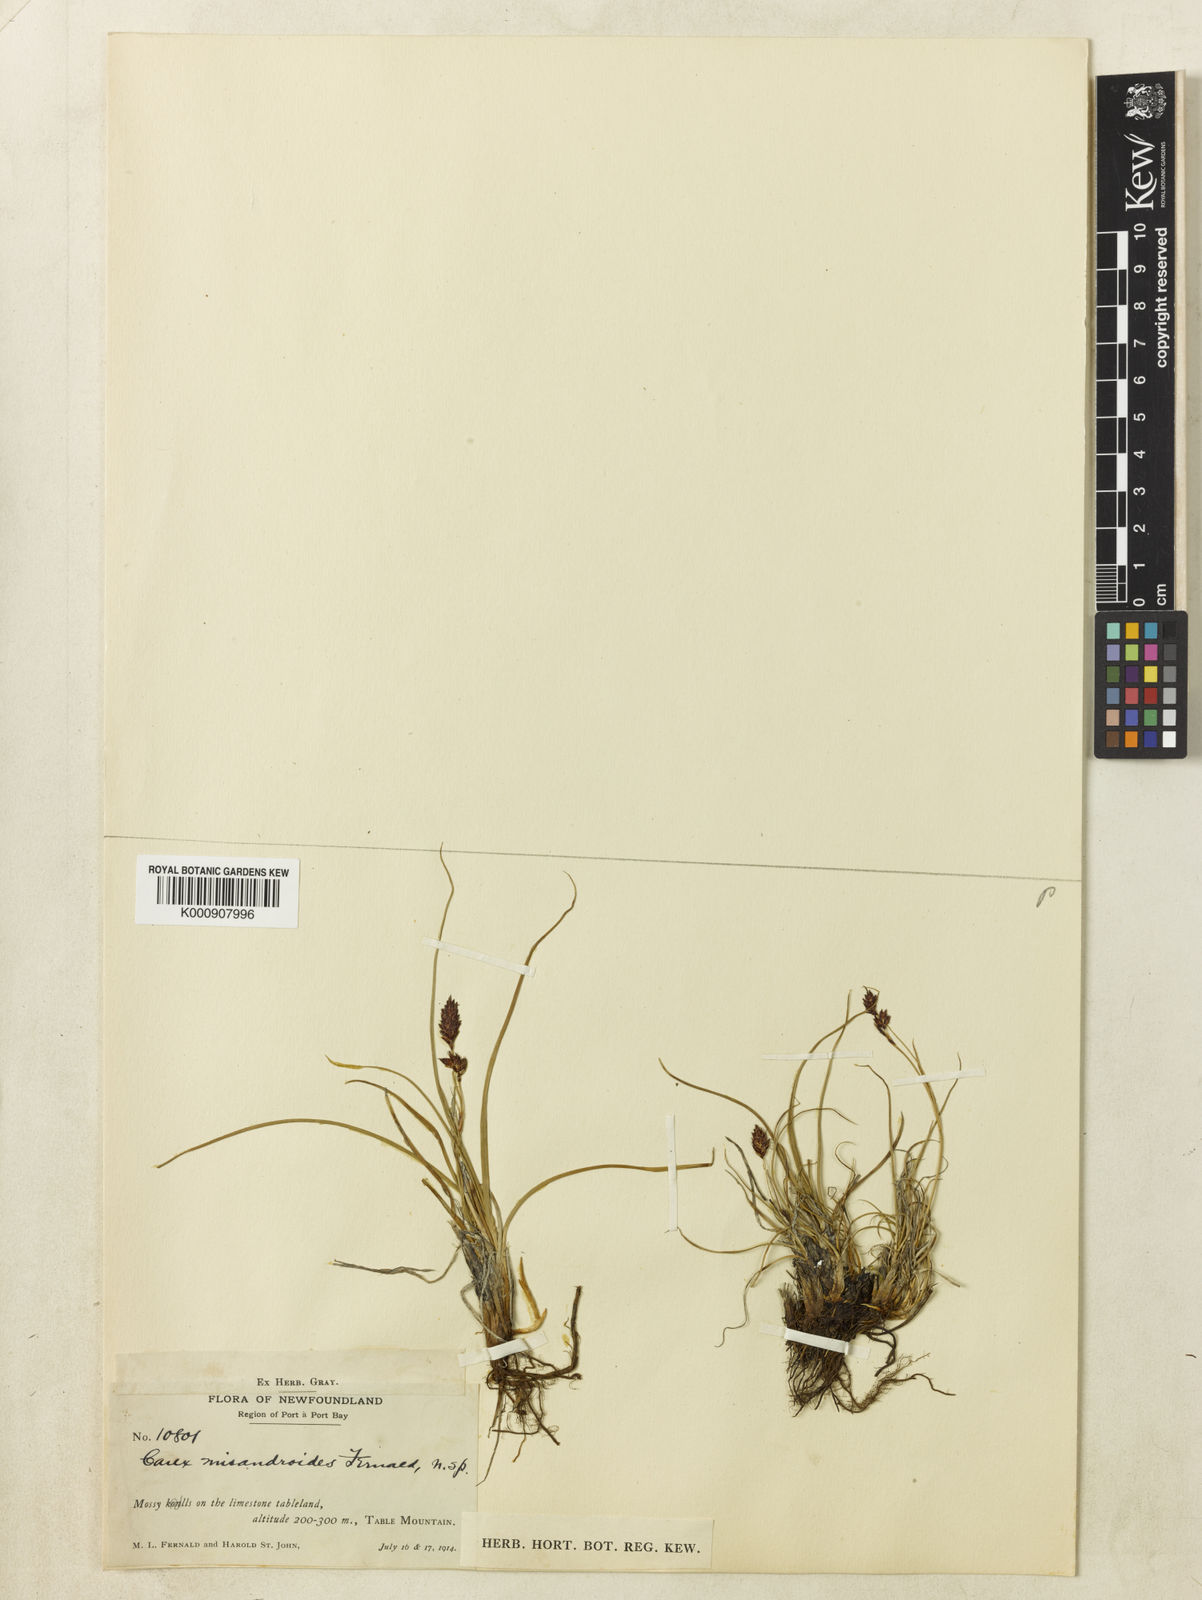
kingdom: Plantae
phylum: Tracheophyta
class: Liliopsida
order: Poales
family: Cyperaceae
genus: Carex
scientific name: Carex petricosa
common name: Rock sedge
